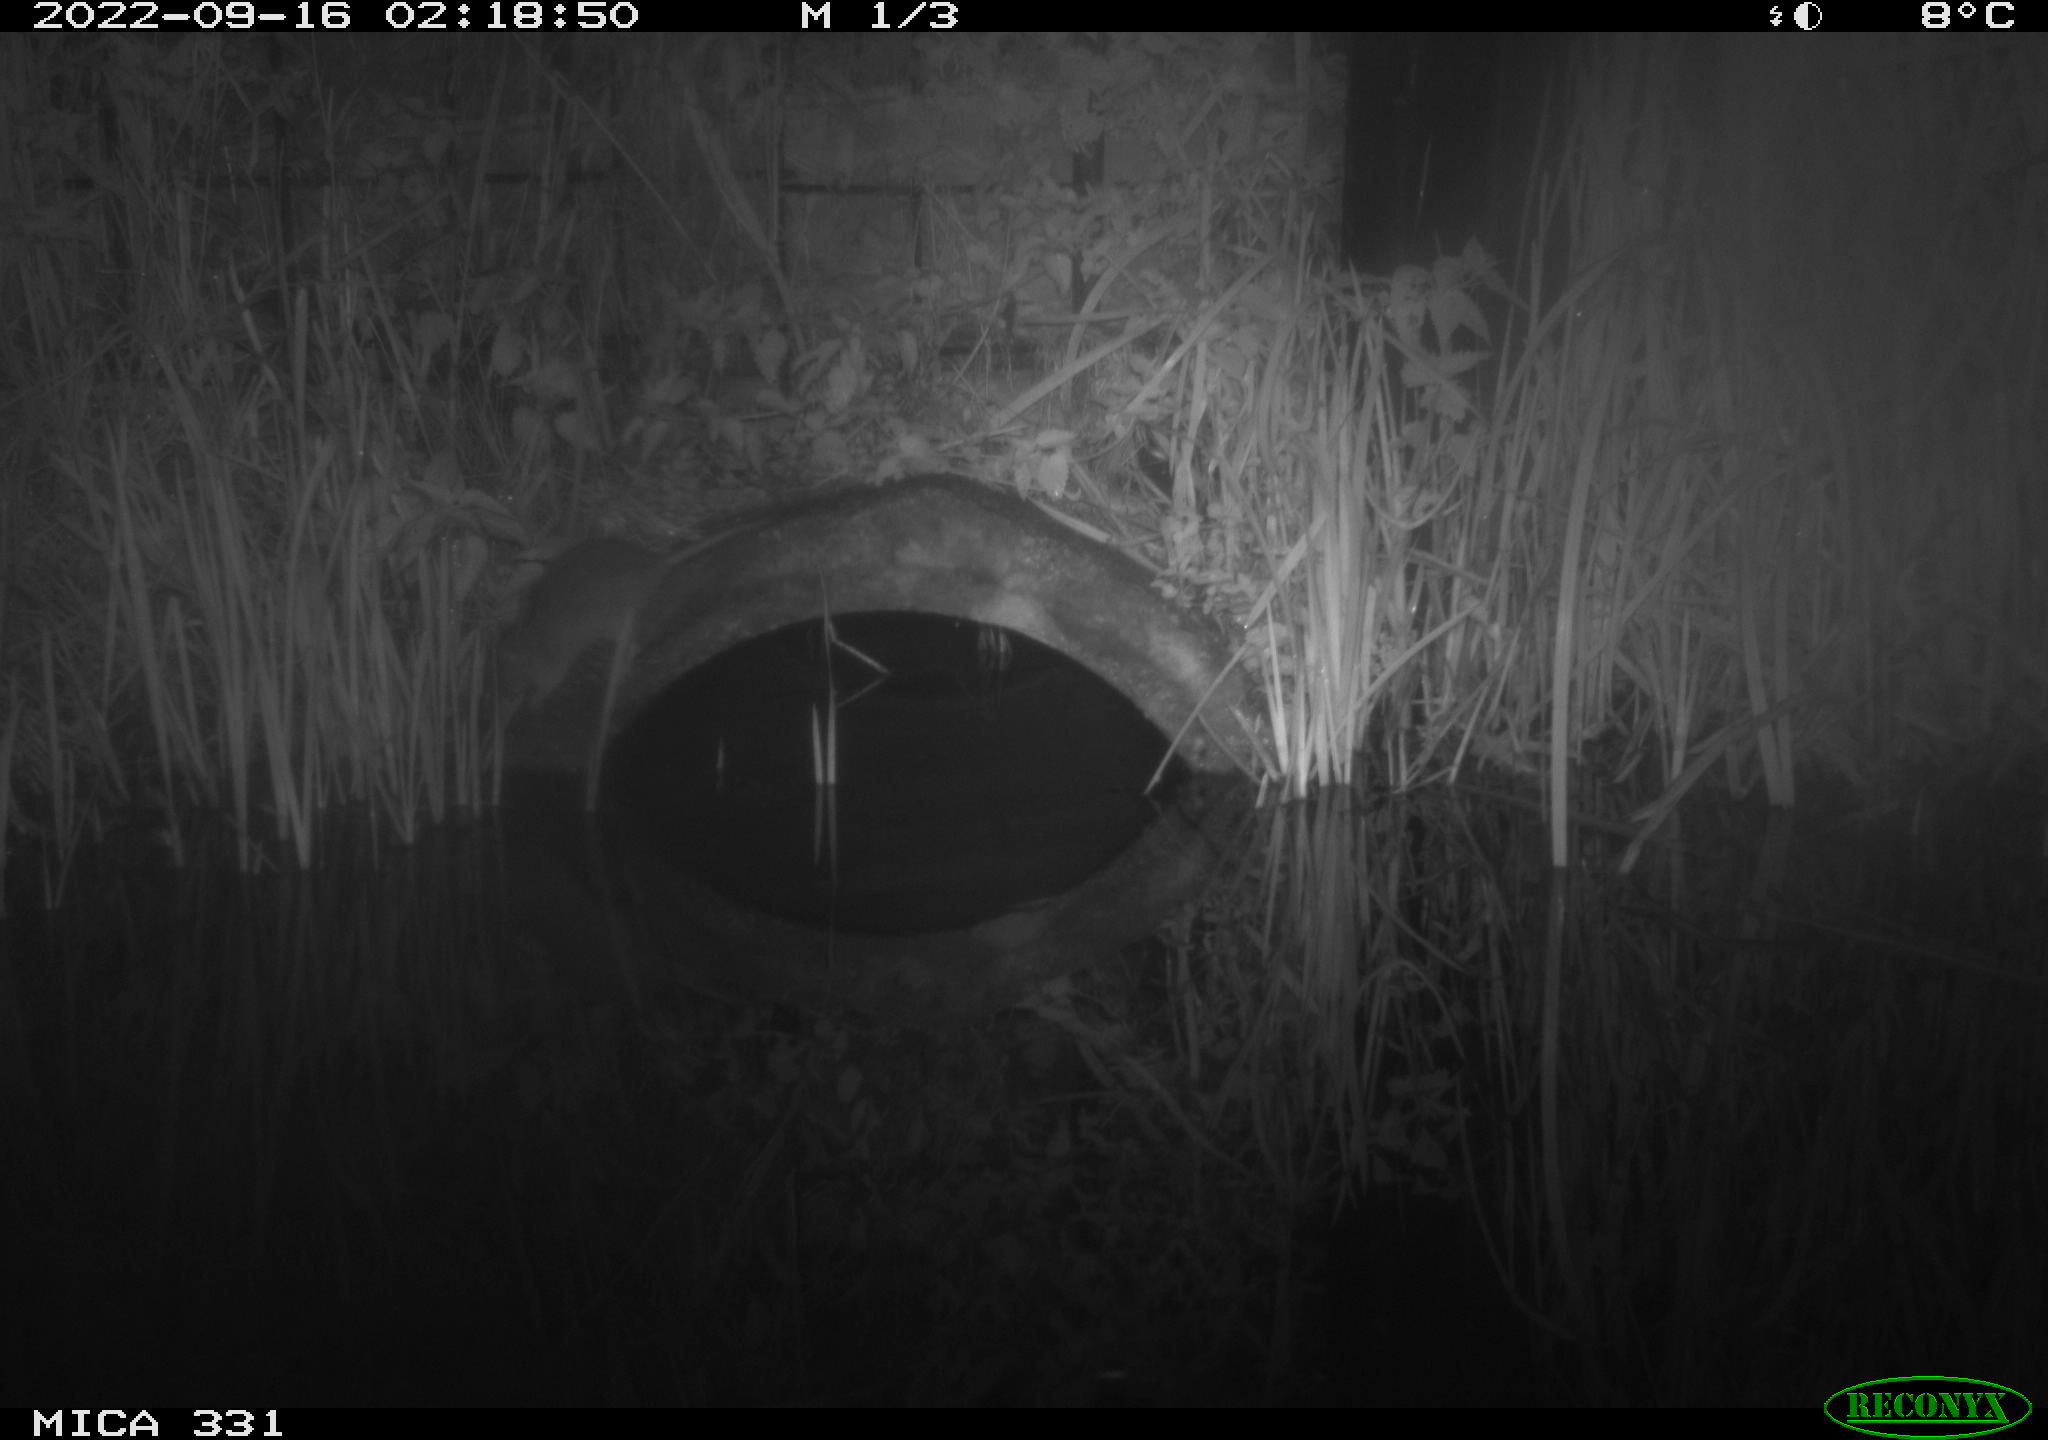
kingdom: Animalia
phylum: Chordata
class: Mammalia
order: Rodentia
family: Muridae
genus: Rattus
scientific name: Rattus norvegicus
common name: Brown rat
